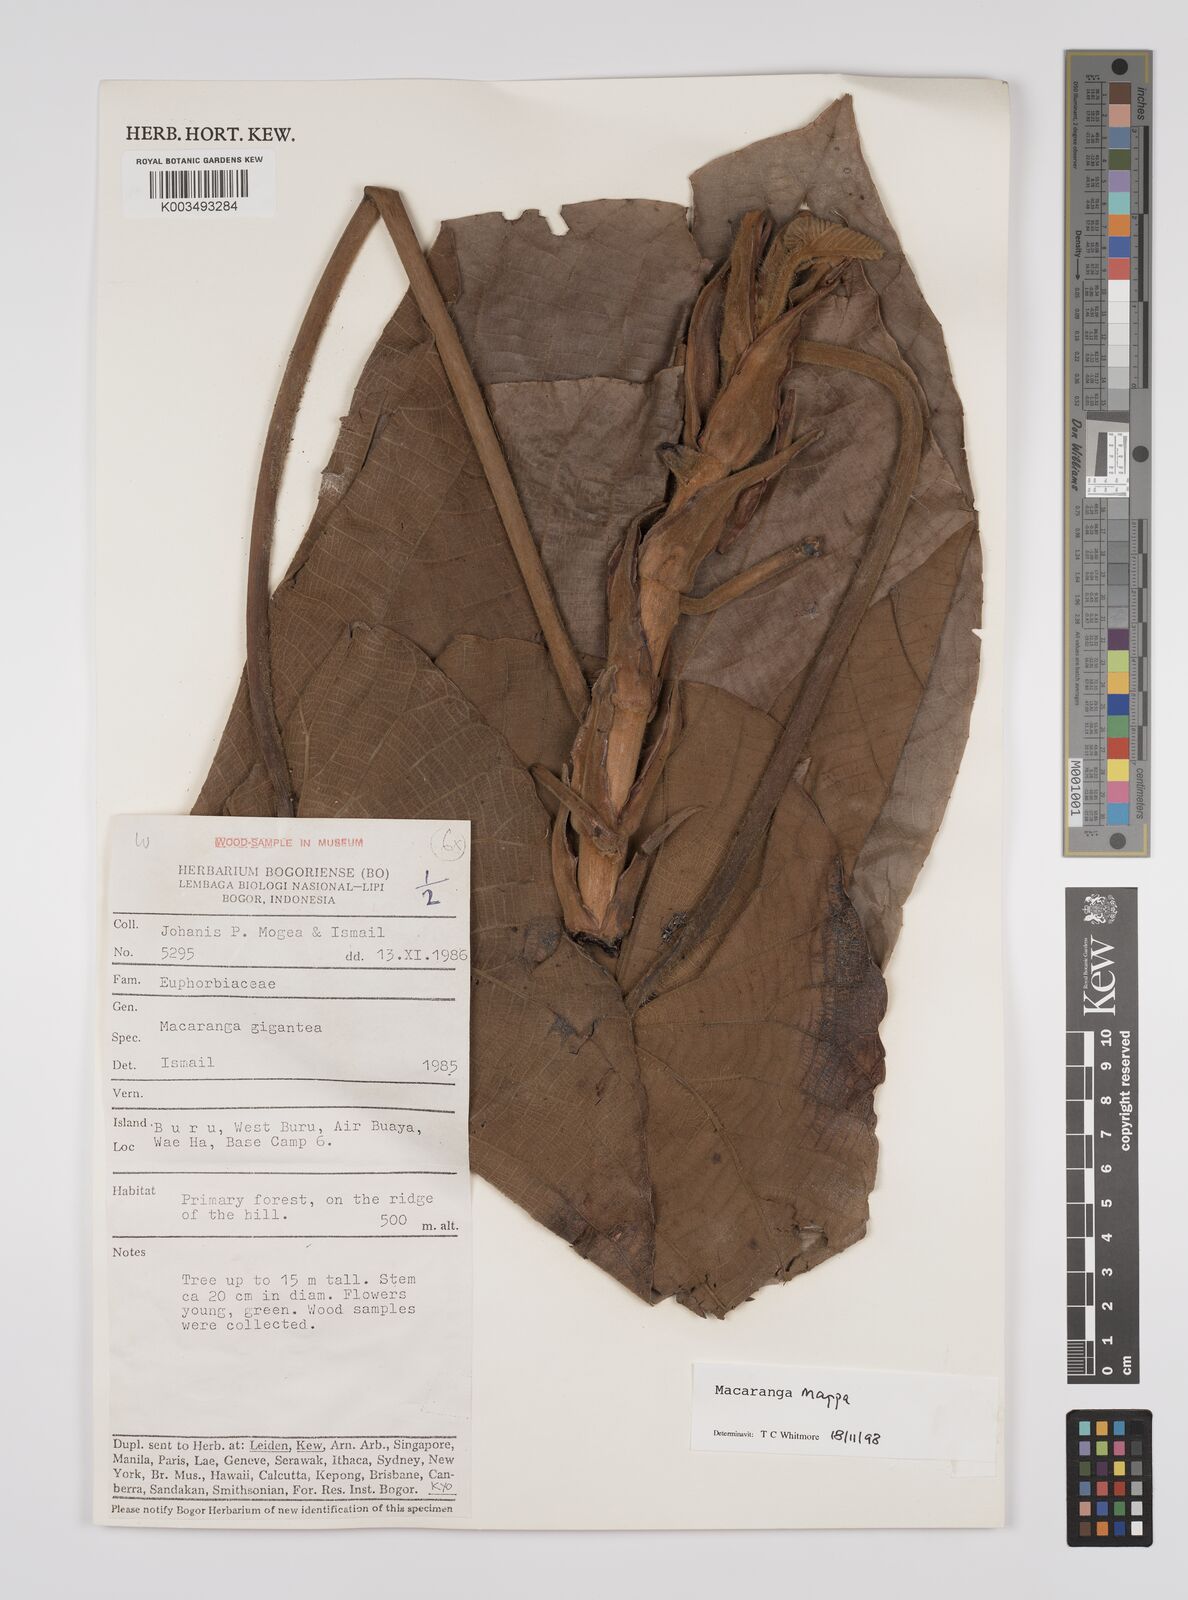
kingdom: Plantae
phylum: Tracheophyta
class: Magnoliopsida
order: Malpighiales
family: Euphorbiaceae
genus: Macaranga
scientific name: Macaranga mappa
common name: Pengua
